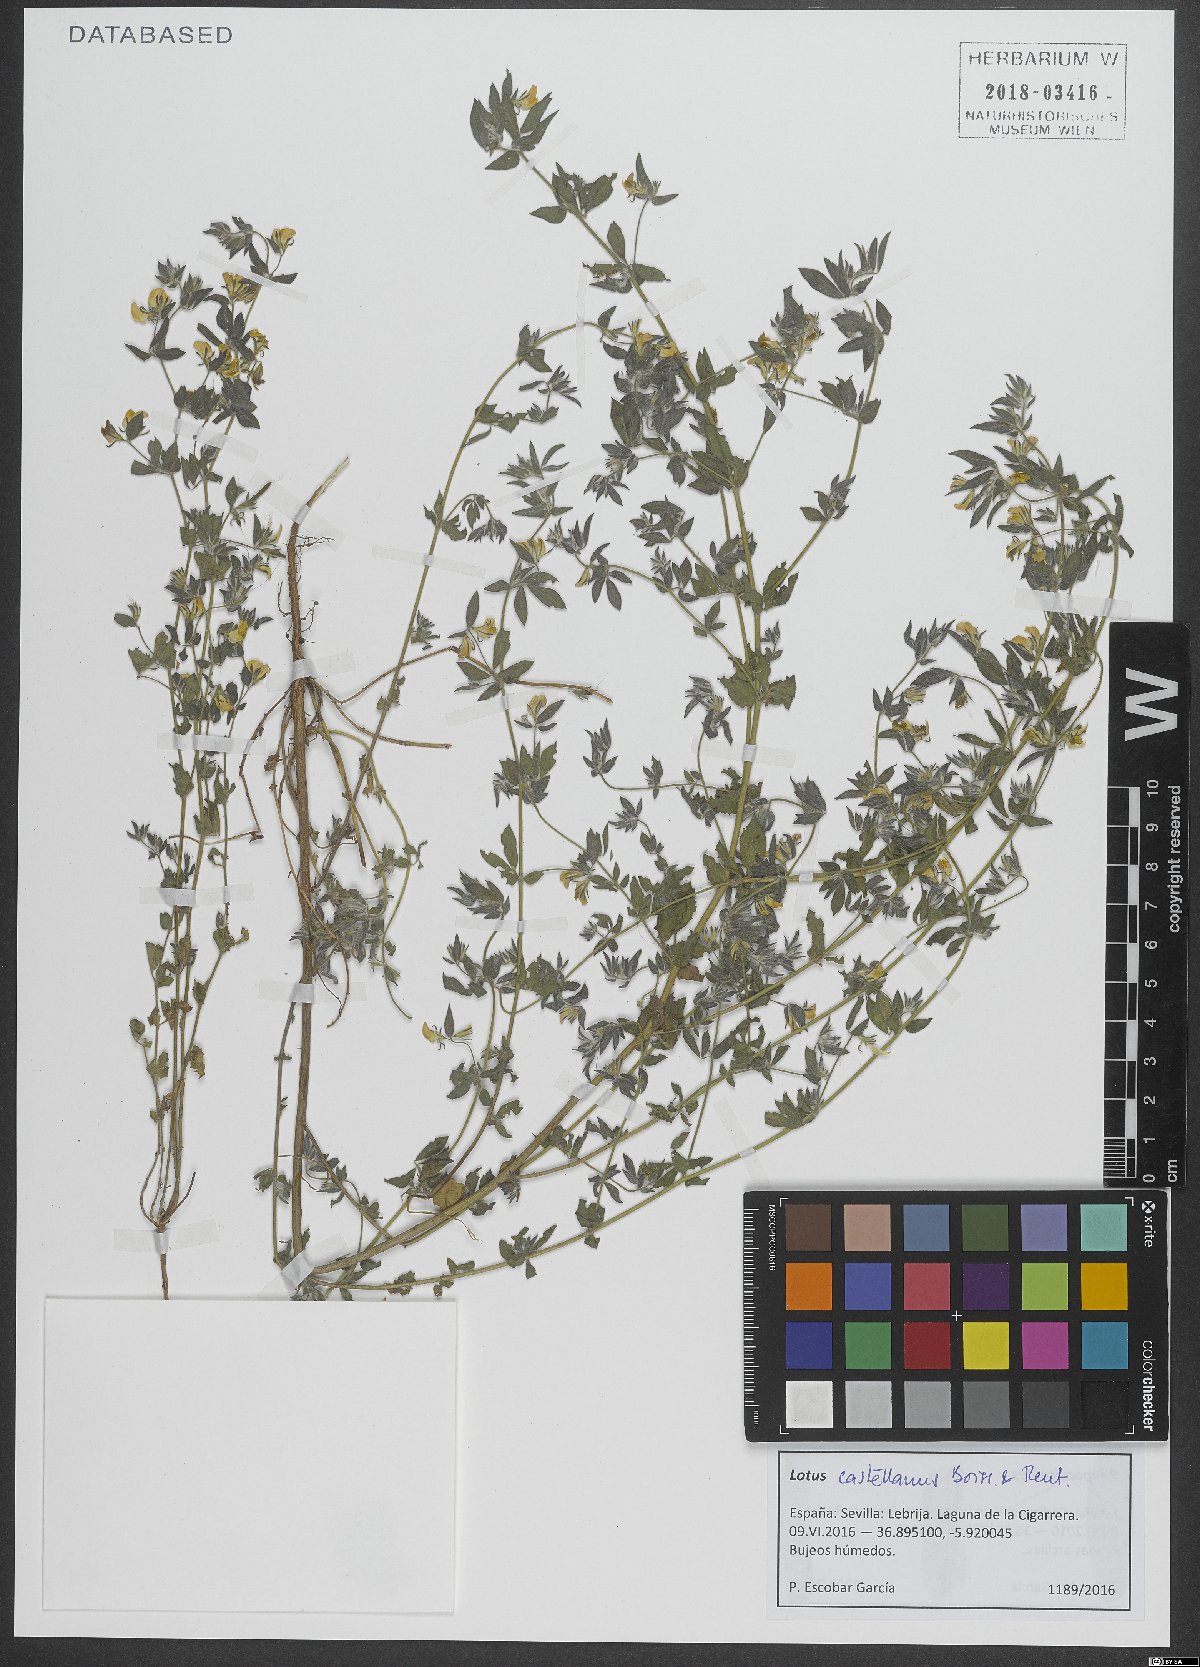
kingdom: Plantae
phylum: Tracheophyta
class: Magnoliopsida
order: Fabales
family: Fabaceae
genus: Lotus
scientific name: Lotus castellanus
